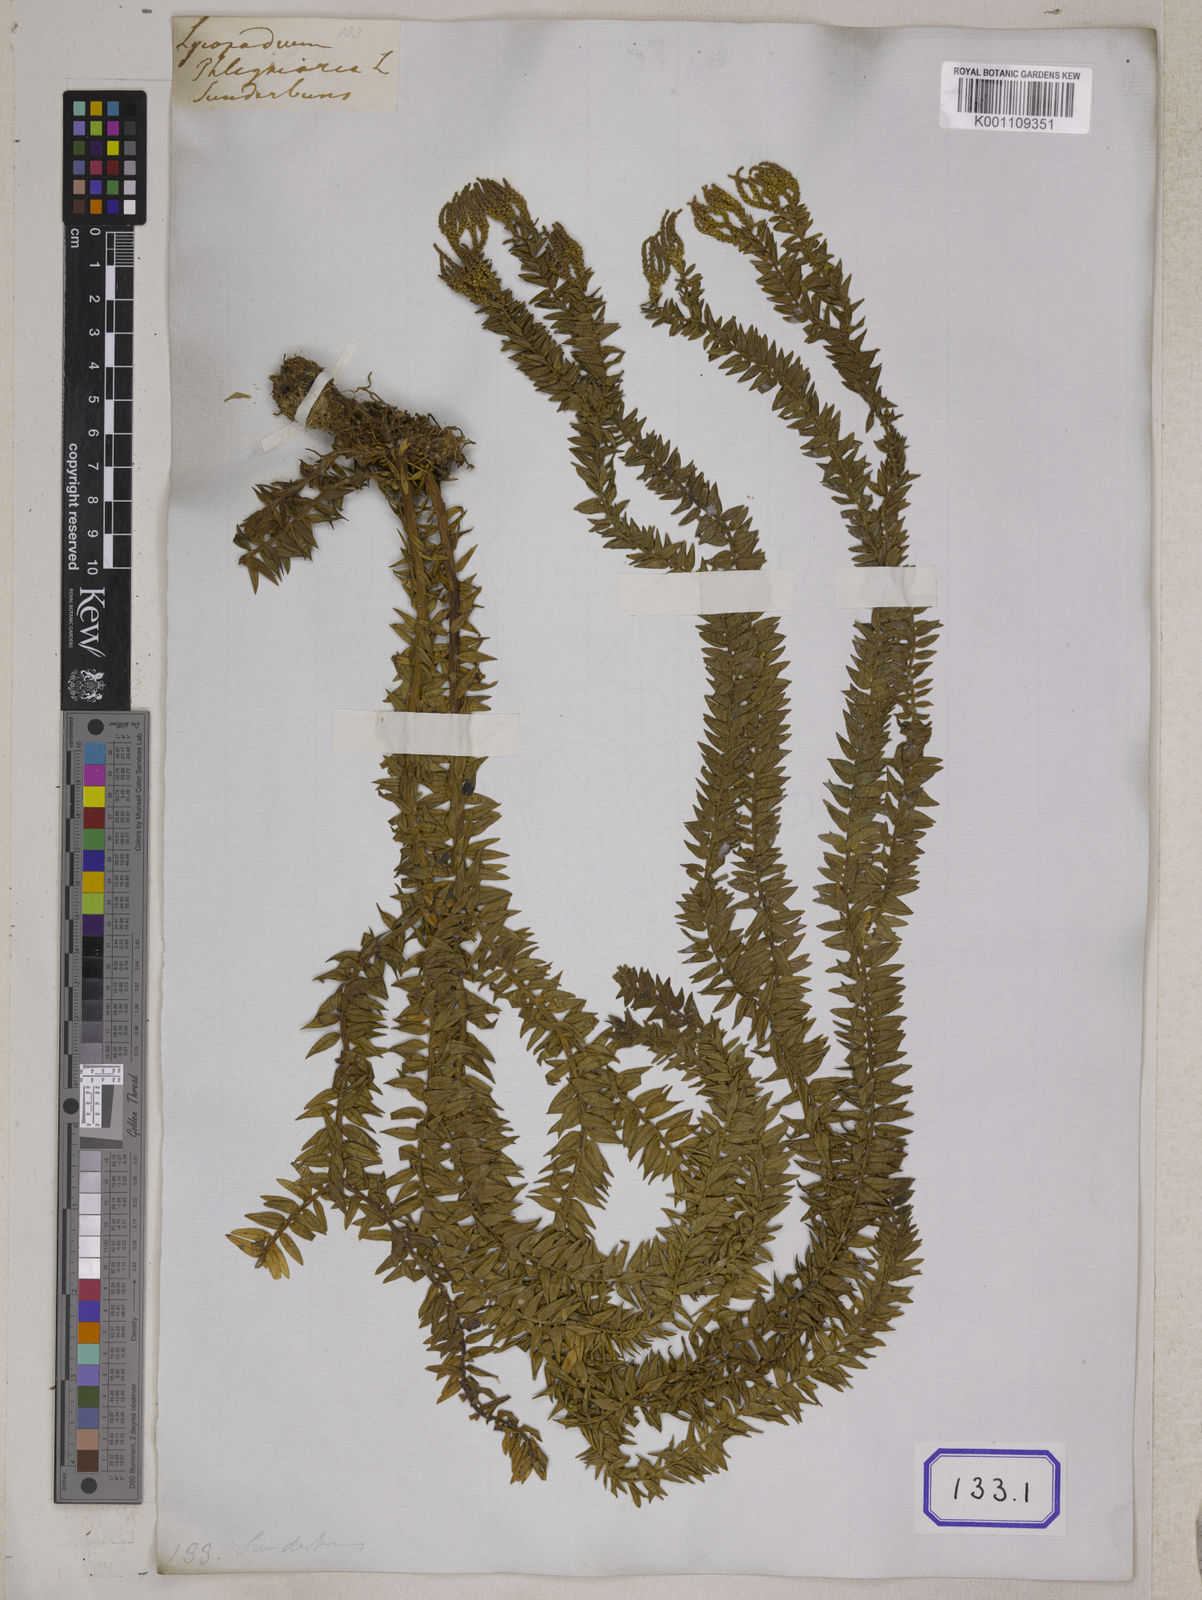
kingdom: Plantae
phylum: Tracheophyta
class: Lycopodiopsida
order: Lycopodiales
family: Lycopodiaceae
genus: Phlegmariurus
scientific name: Phlegmariurus phlegmaria
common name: Coarse tassel-fern
